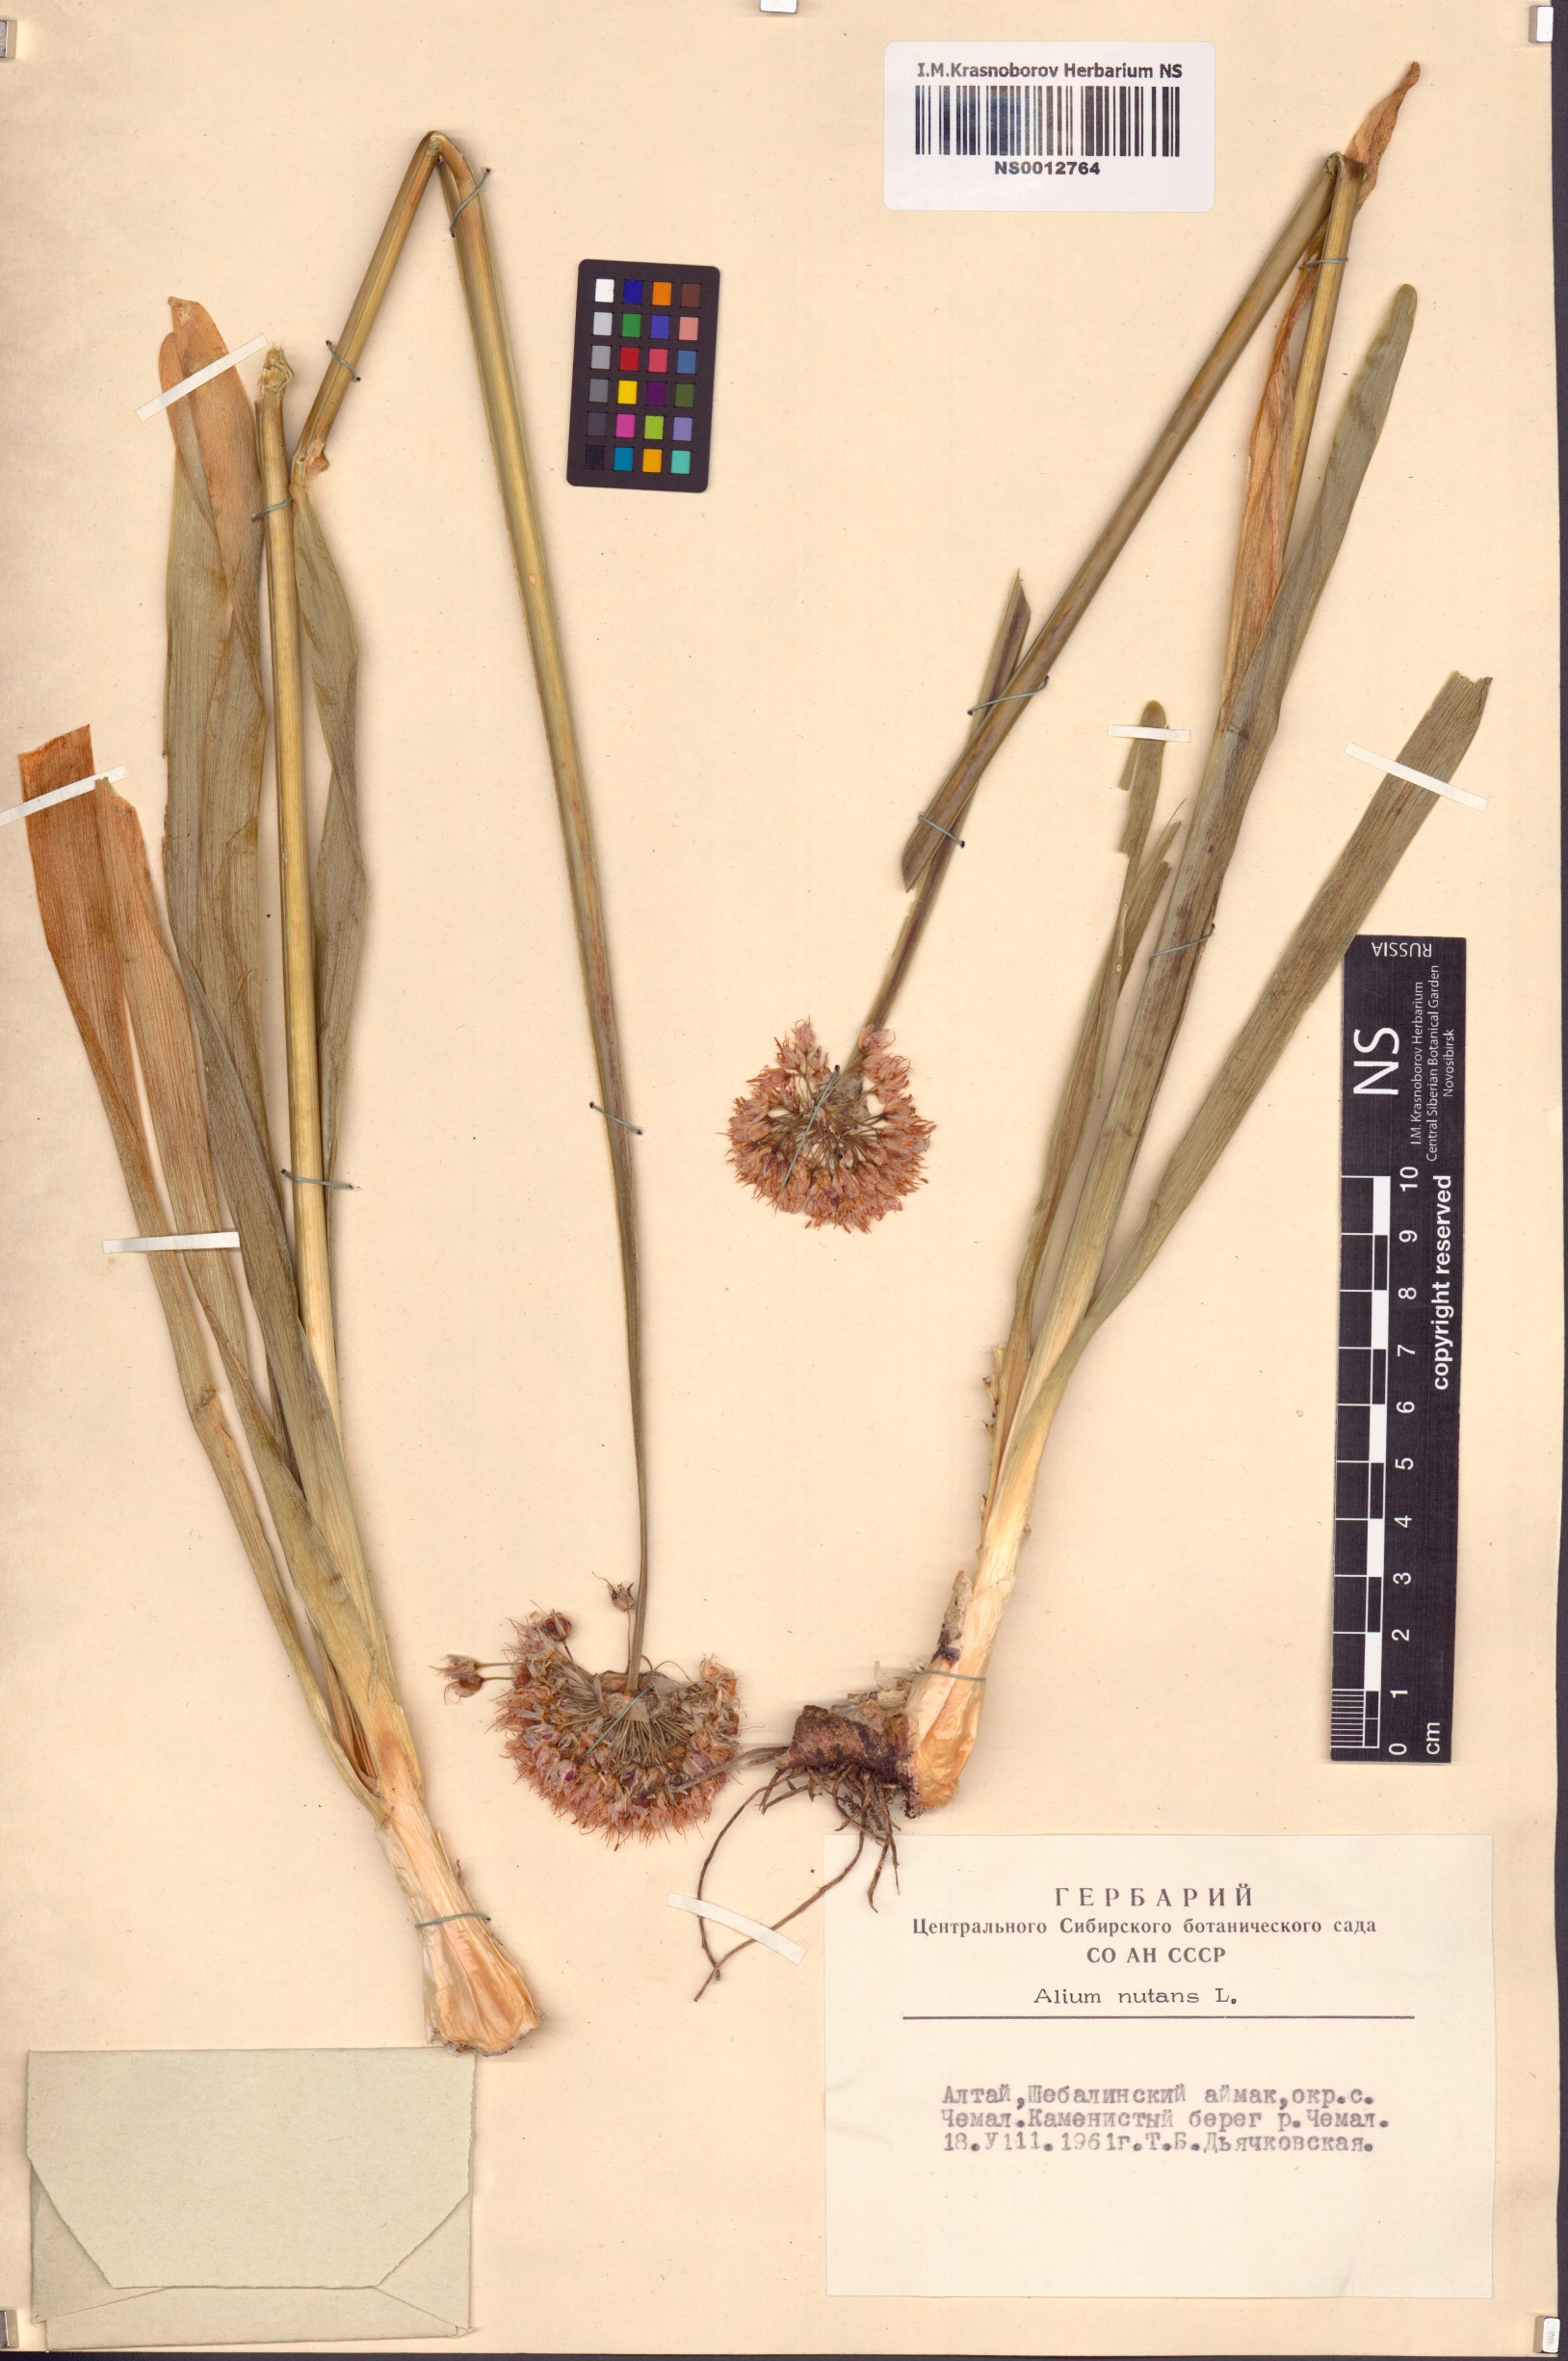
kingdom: Plantae
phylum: Tracheophyta
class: Liliopsida
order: Asparagales
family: Amaryllidaceae
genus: Allium
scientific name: Allium nutans
